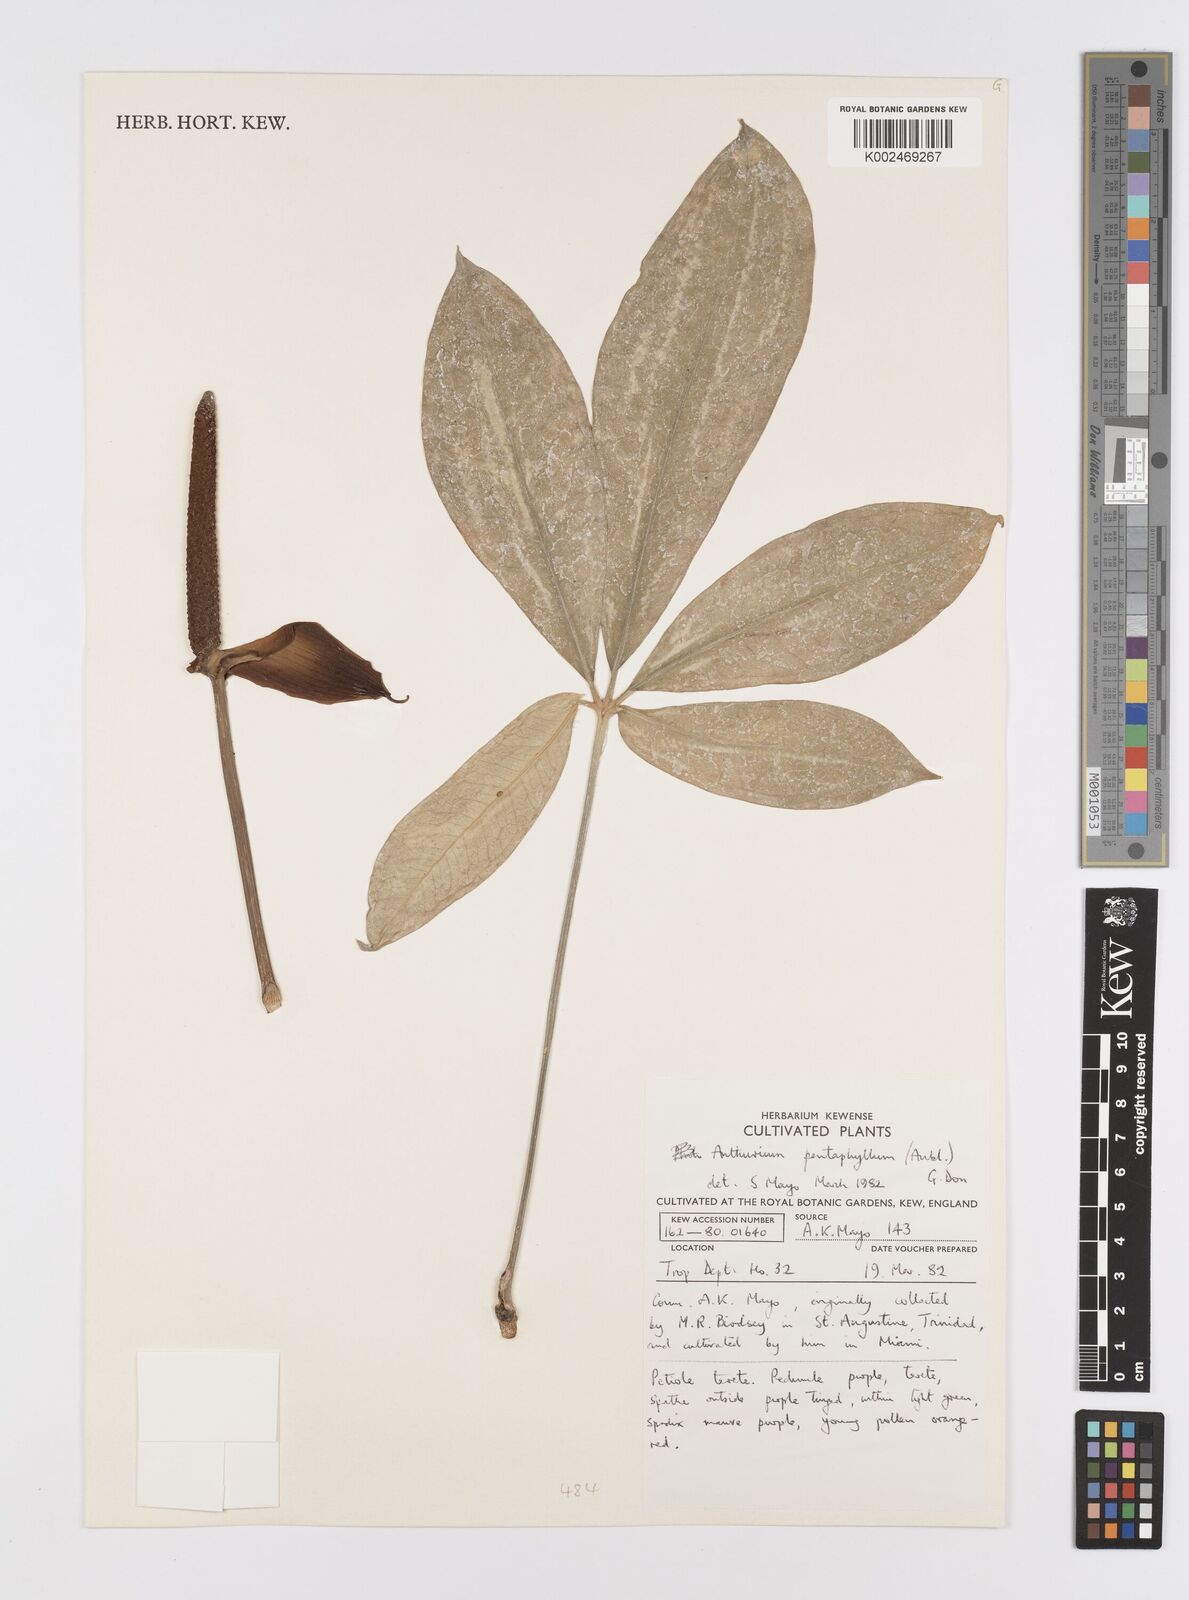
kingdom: Plantae
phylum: Tracheophyta
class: Liliopsida
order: Alismatales
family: Araceae
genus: Anthurium
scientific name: Anthurium pentaphyllum
